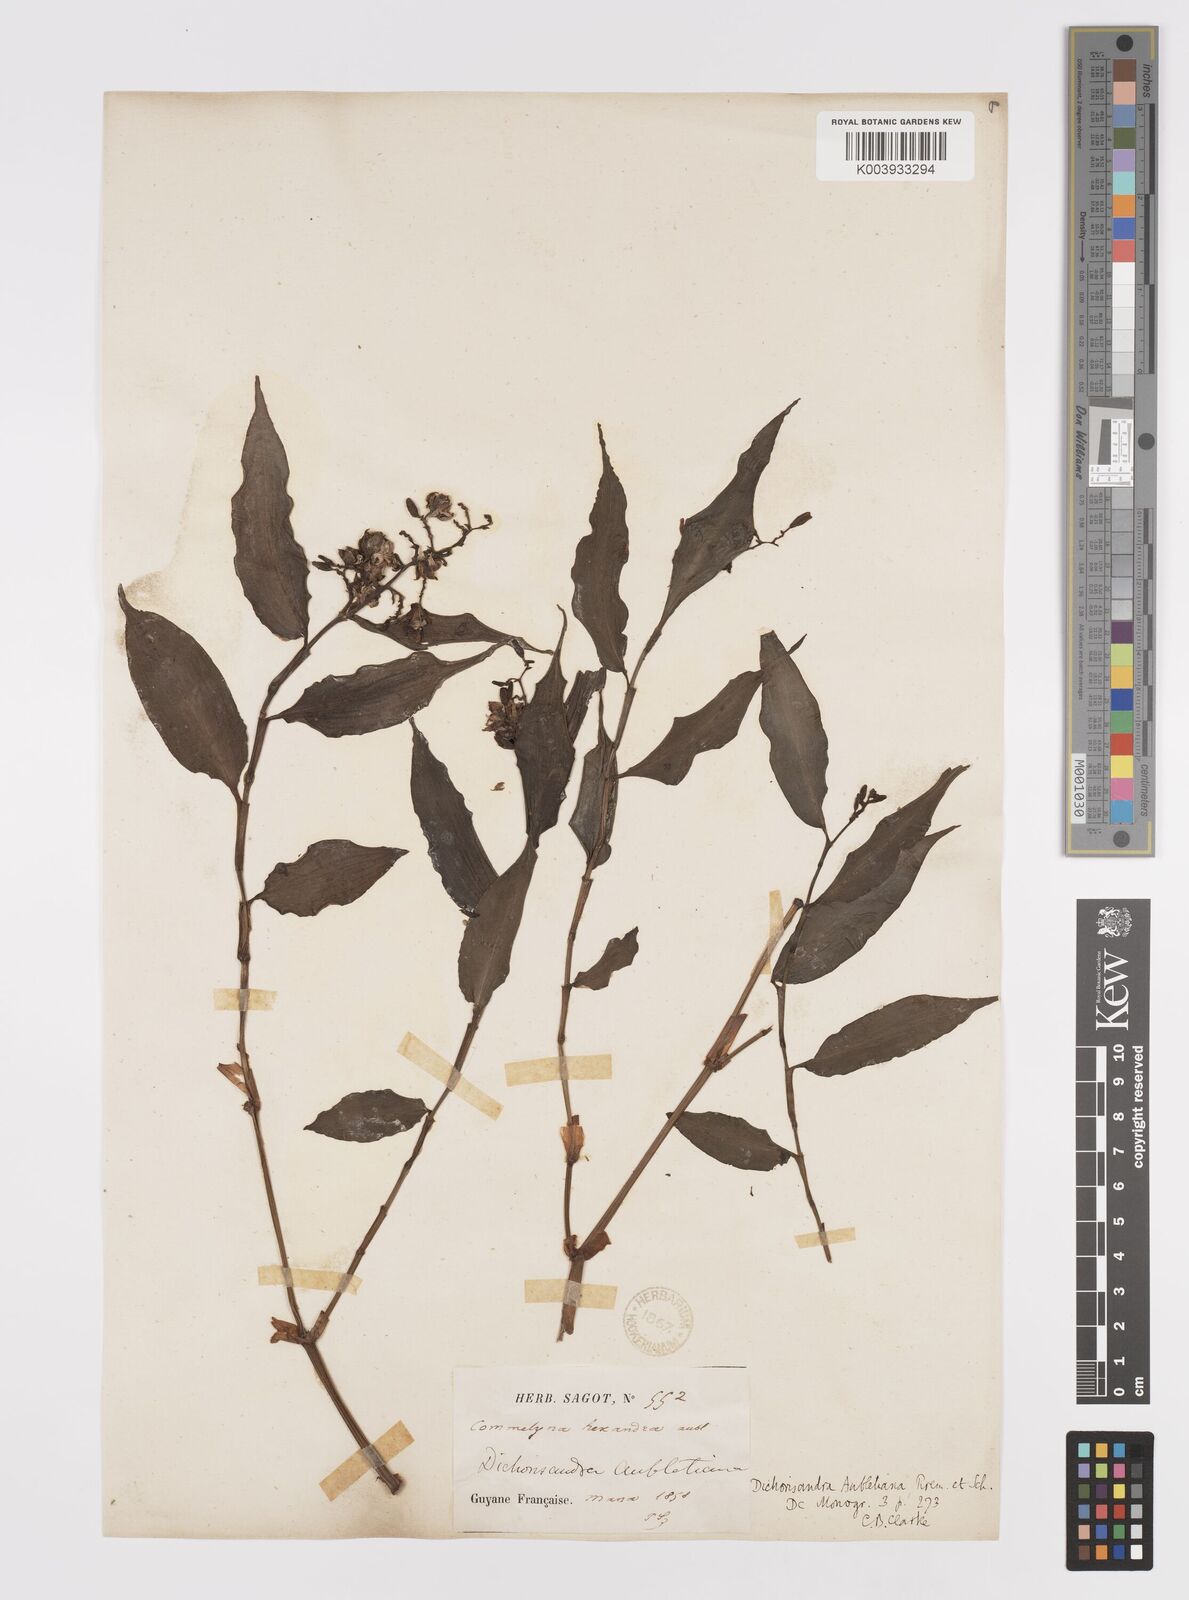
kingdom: Plantae
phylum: Tracheophyta
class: Liliopsida
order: Commelinales
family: Commelinaceae
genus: Dichorisandra
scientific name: Dichorisandra hexandra
